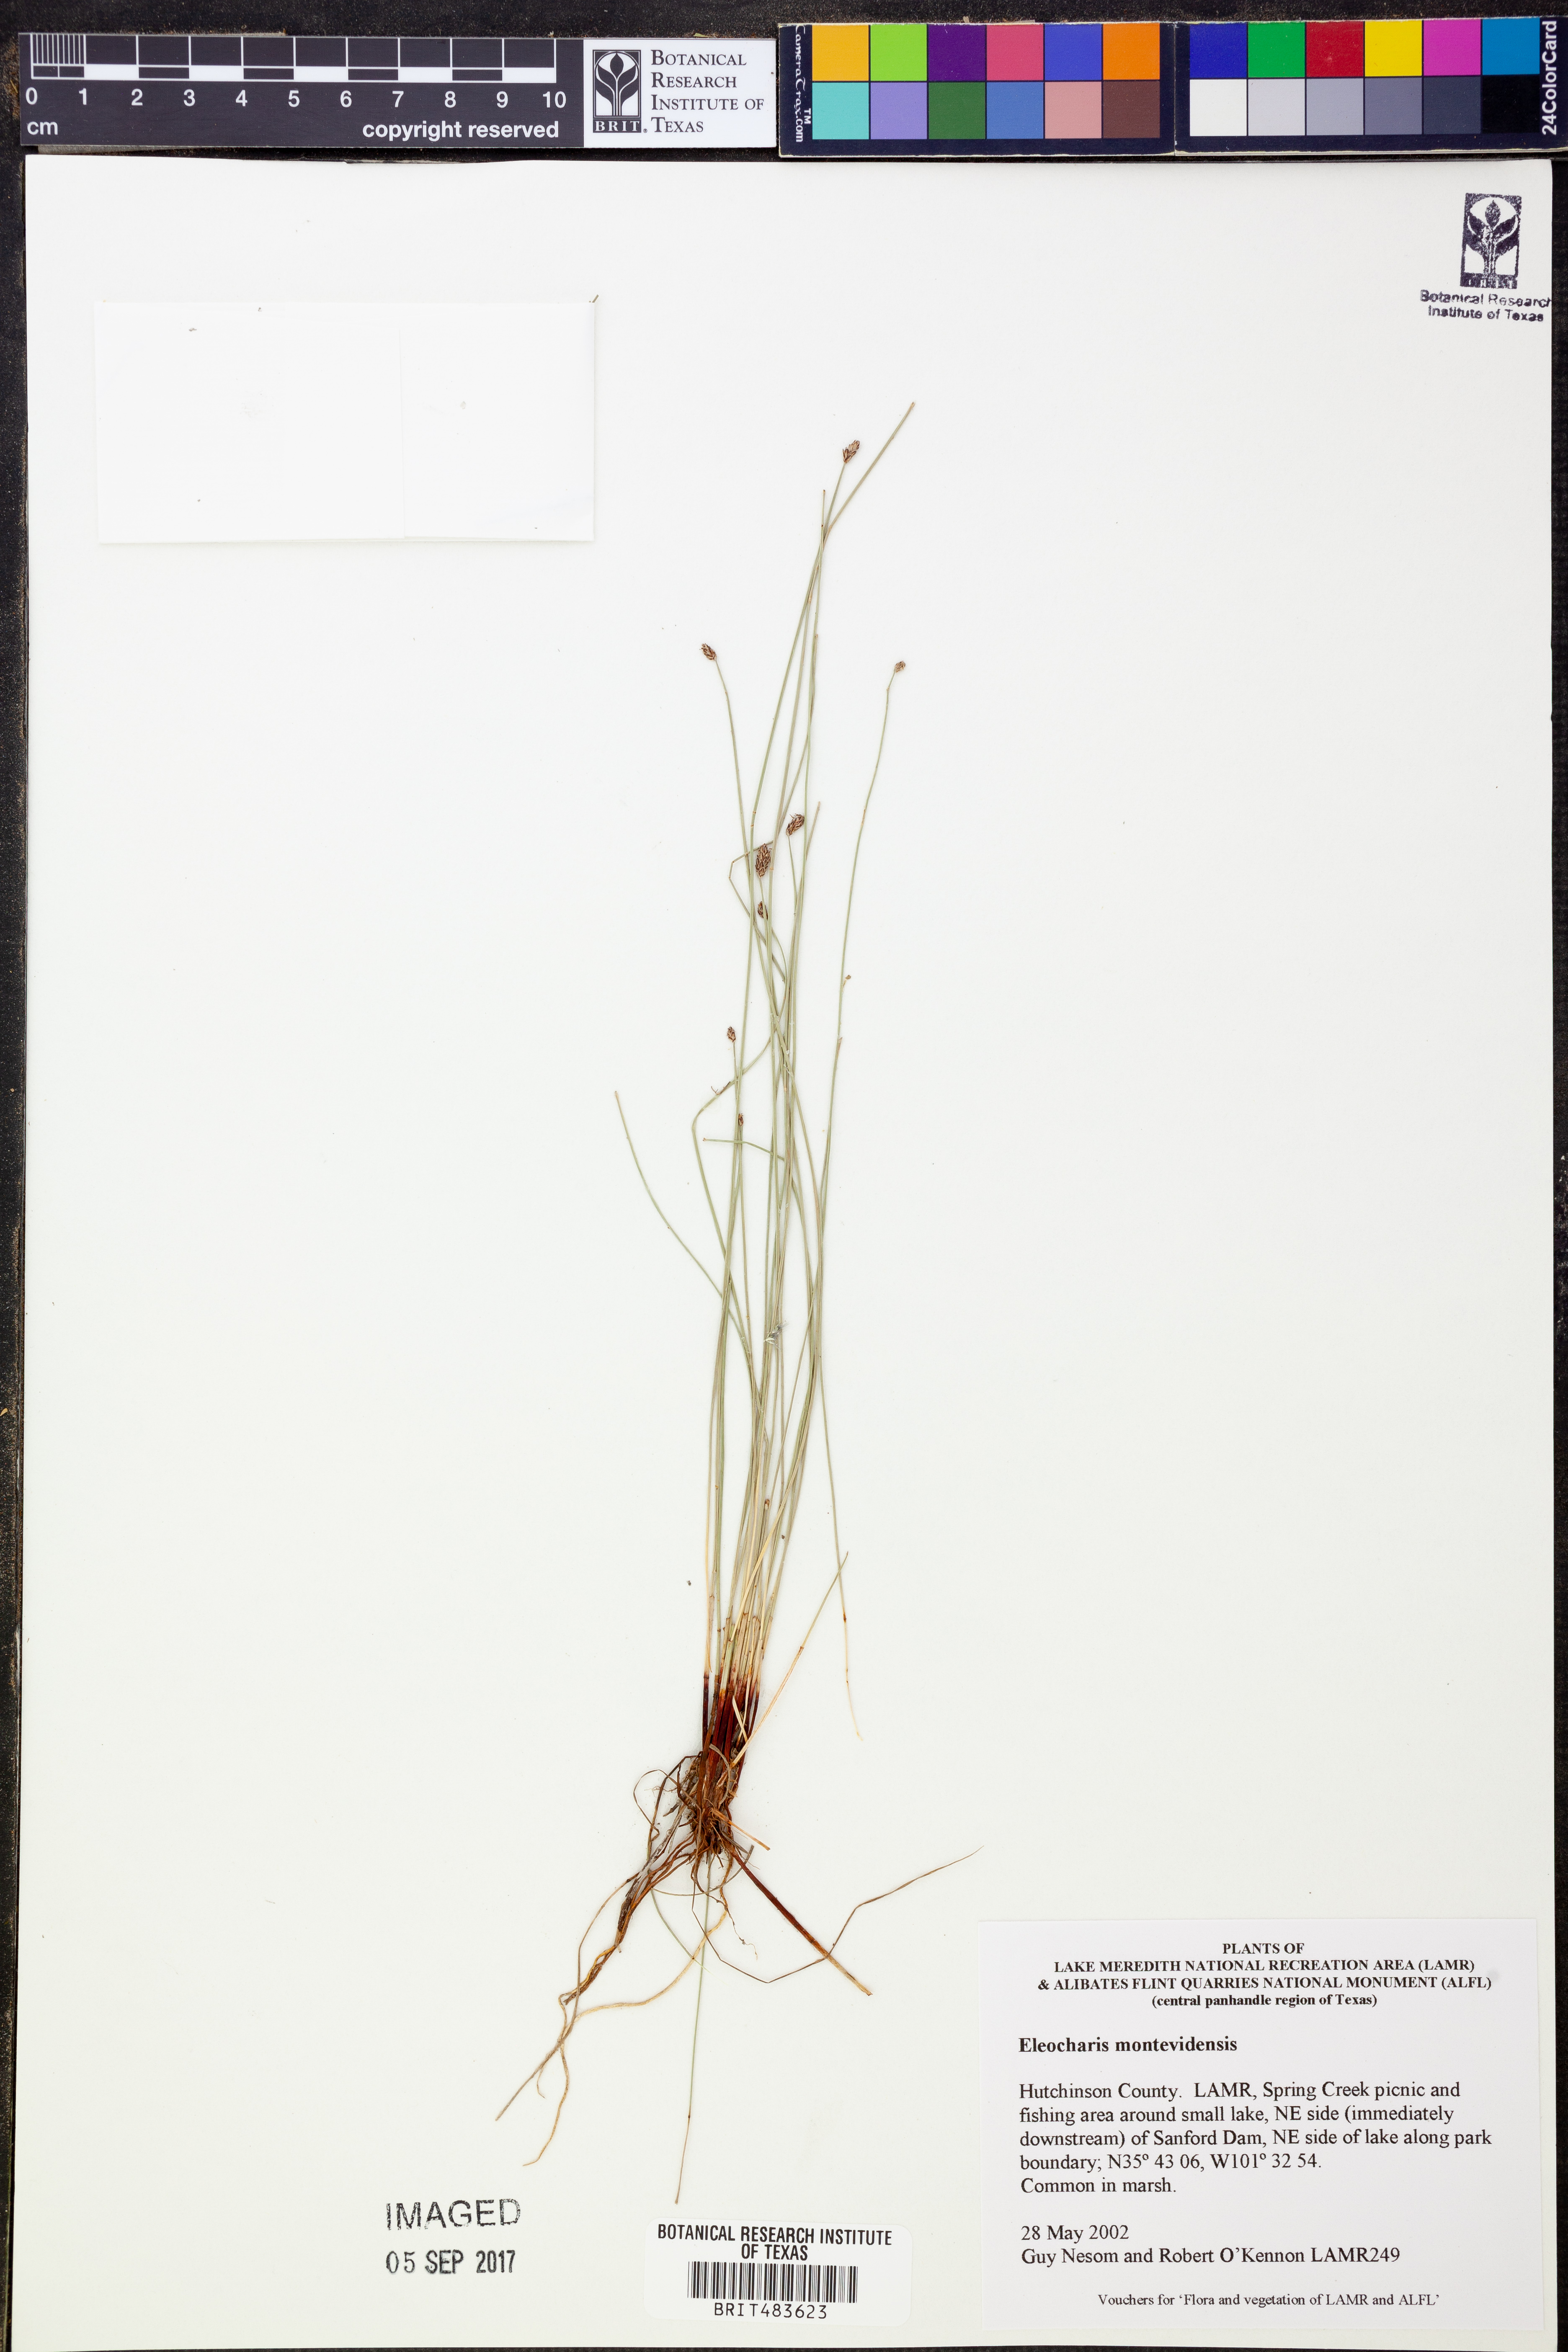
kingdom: Plantae
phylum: Tracheophyta
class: Liliopsida
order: Poales
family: Cyperaceae
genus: Eleocharis
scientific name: Eleocharis montevidensis
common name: Sand spike-rush
